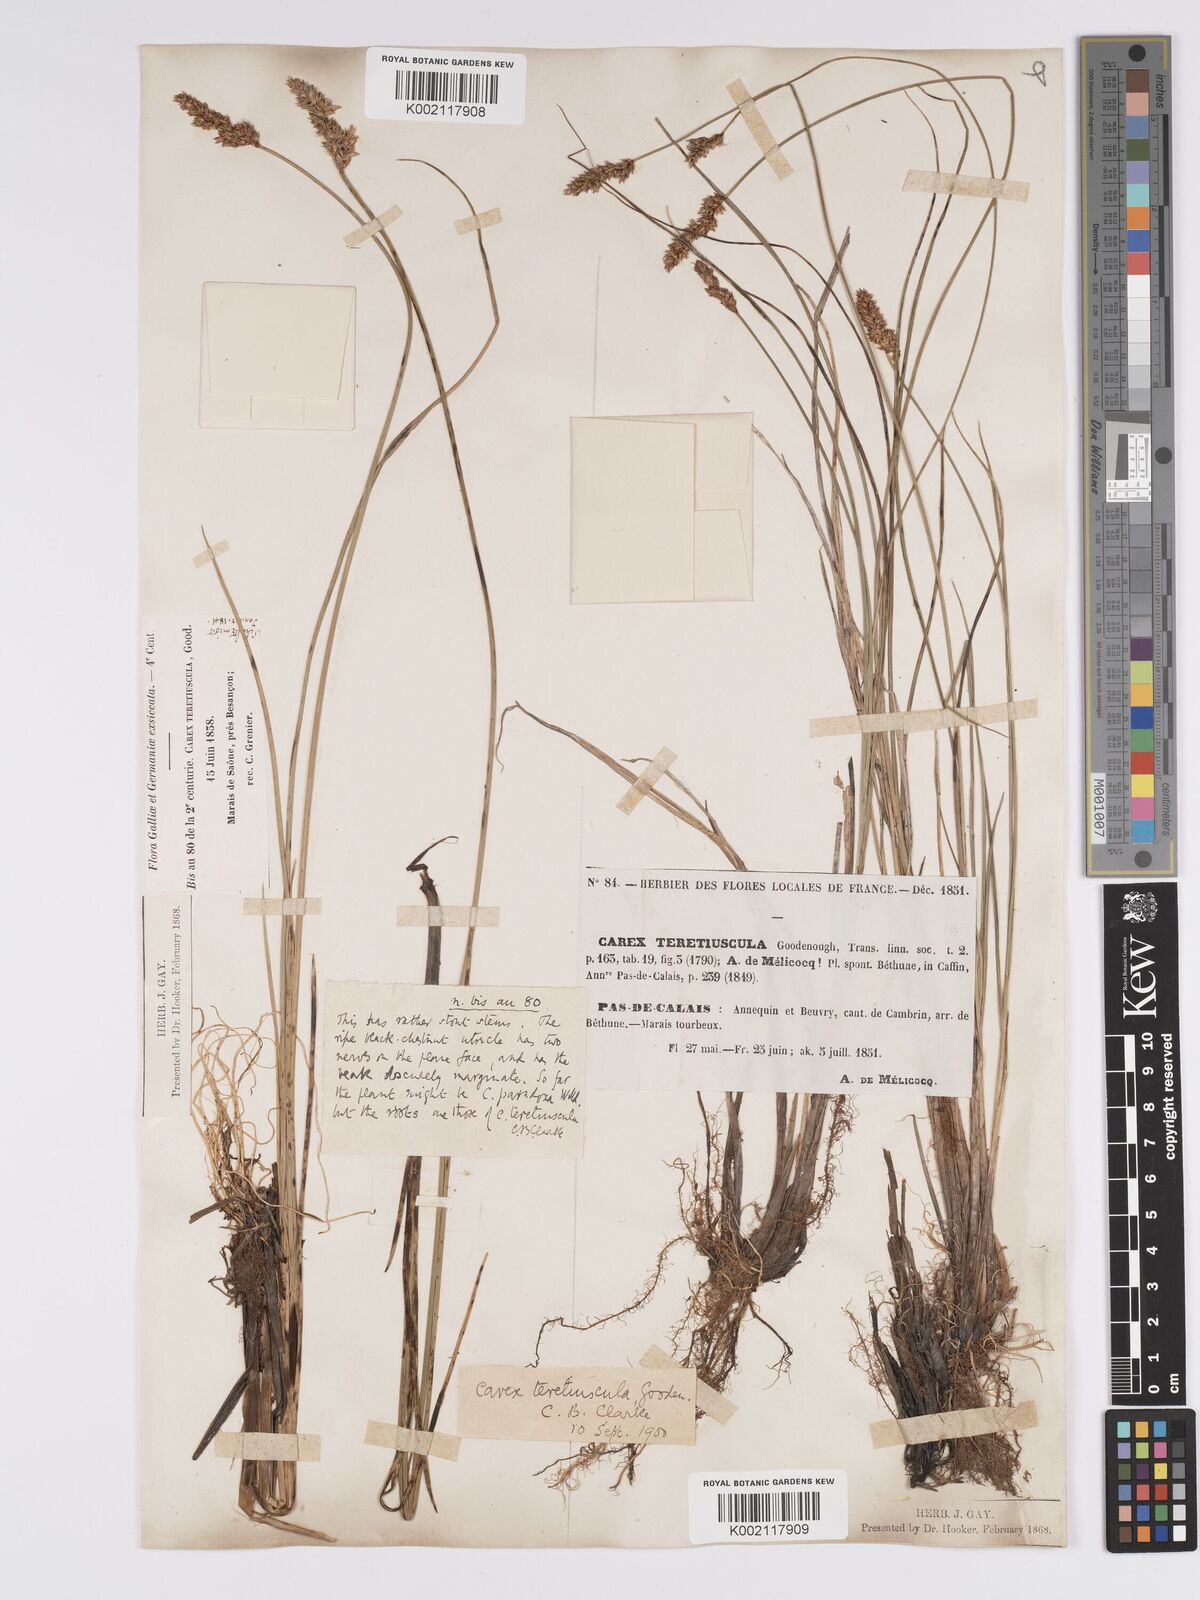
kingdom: Plantae
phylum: Tracheophyta
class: Liliopsida
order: Poales
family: Cyperaceae
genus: Carex
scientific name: Carex diandra
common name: Lesser tussock-sedge
